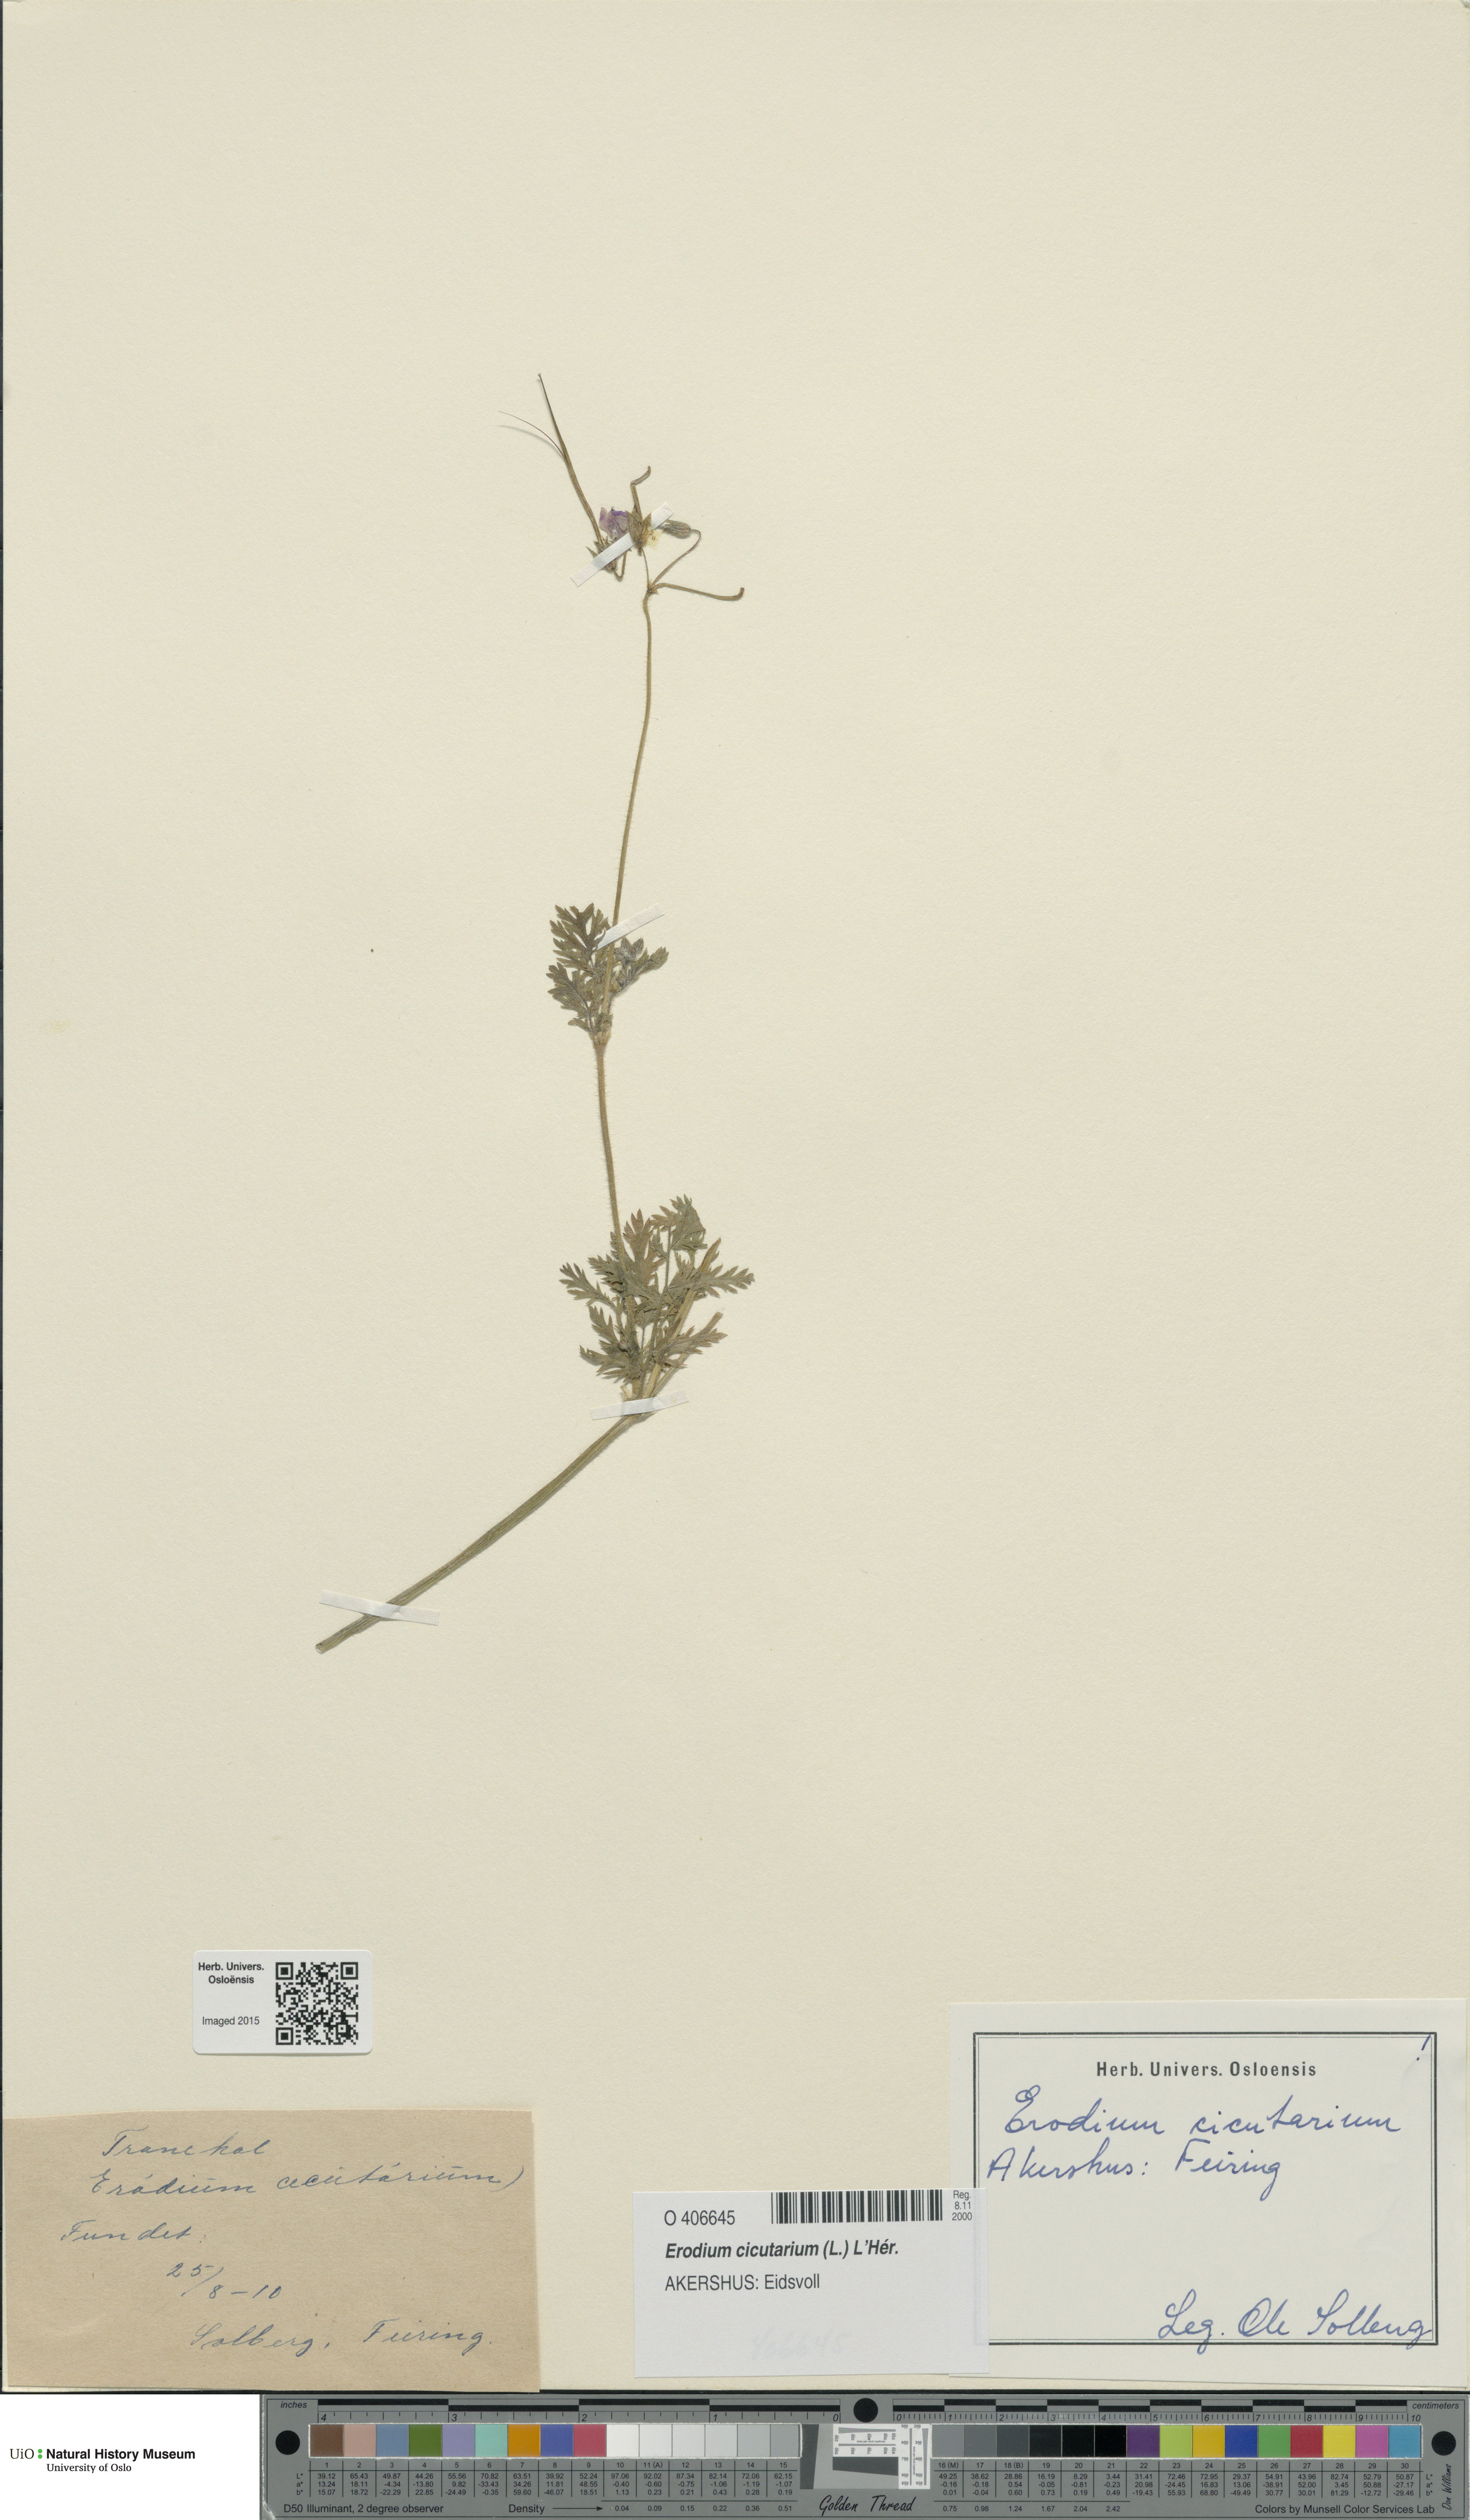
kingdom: Plantae
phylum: Tracheophyta
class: Magnoliopsida
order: Geraniales
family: Geraniaceae
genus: Erodium
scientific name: Erodium cicutarium
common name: Common stork's-bill
